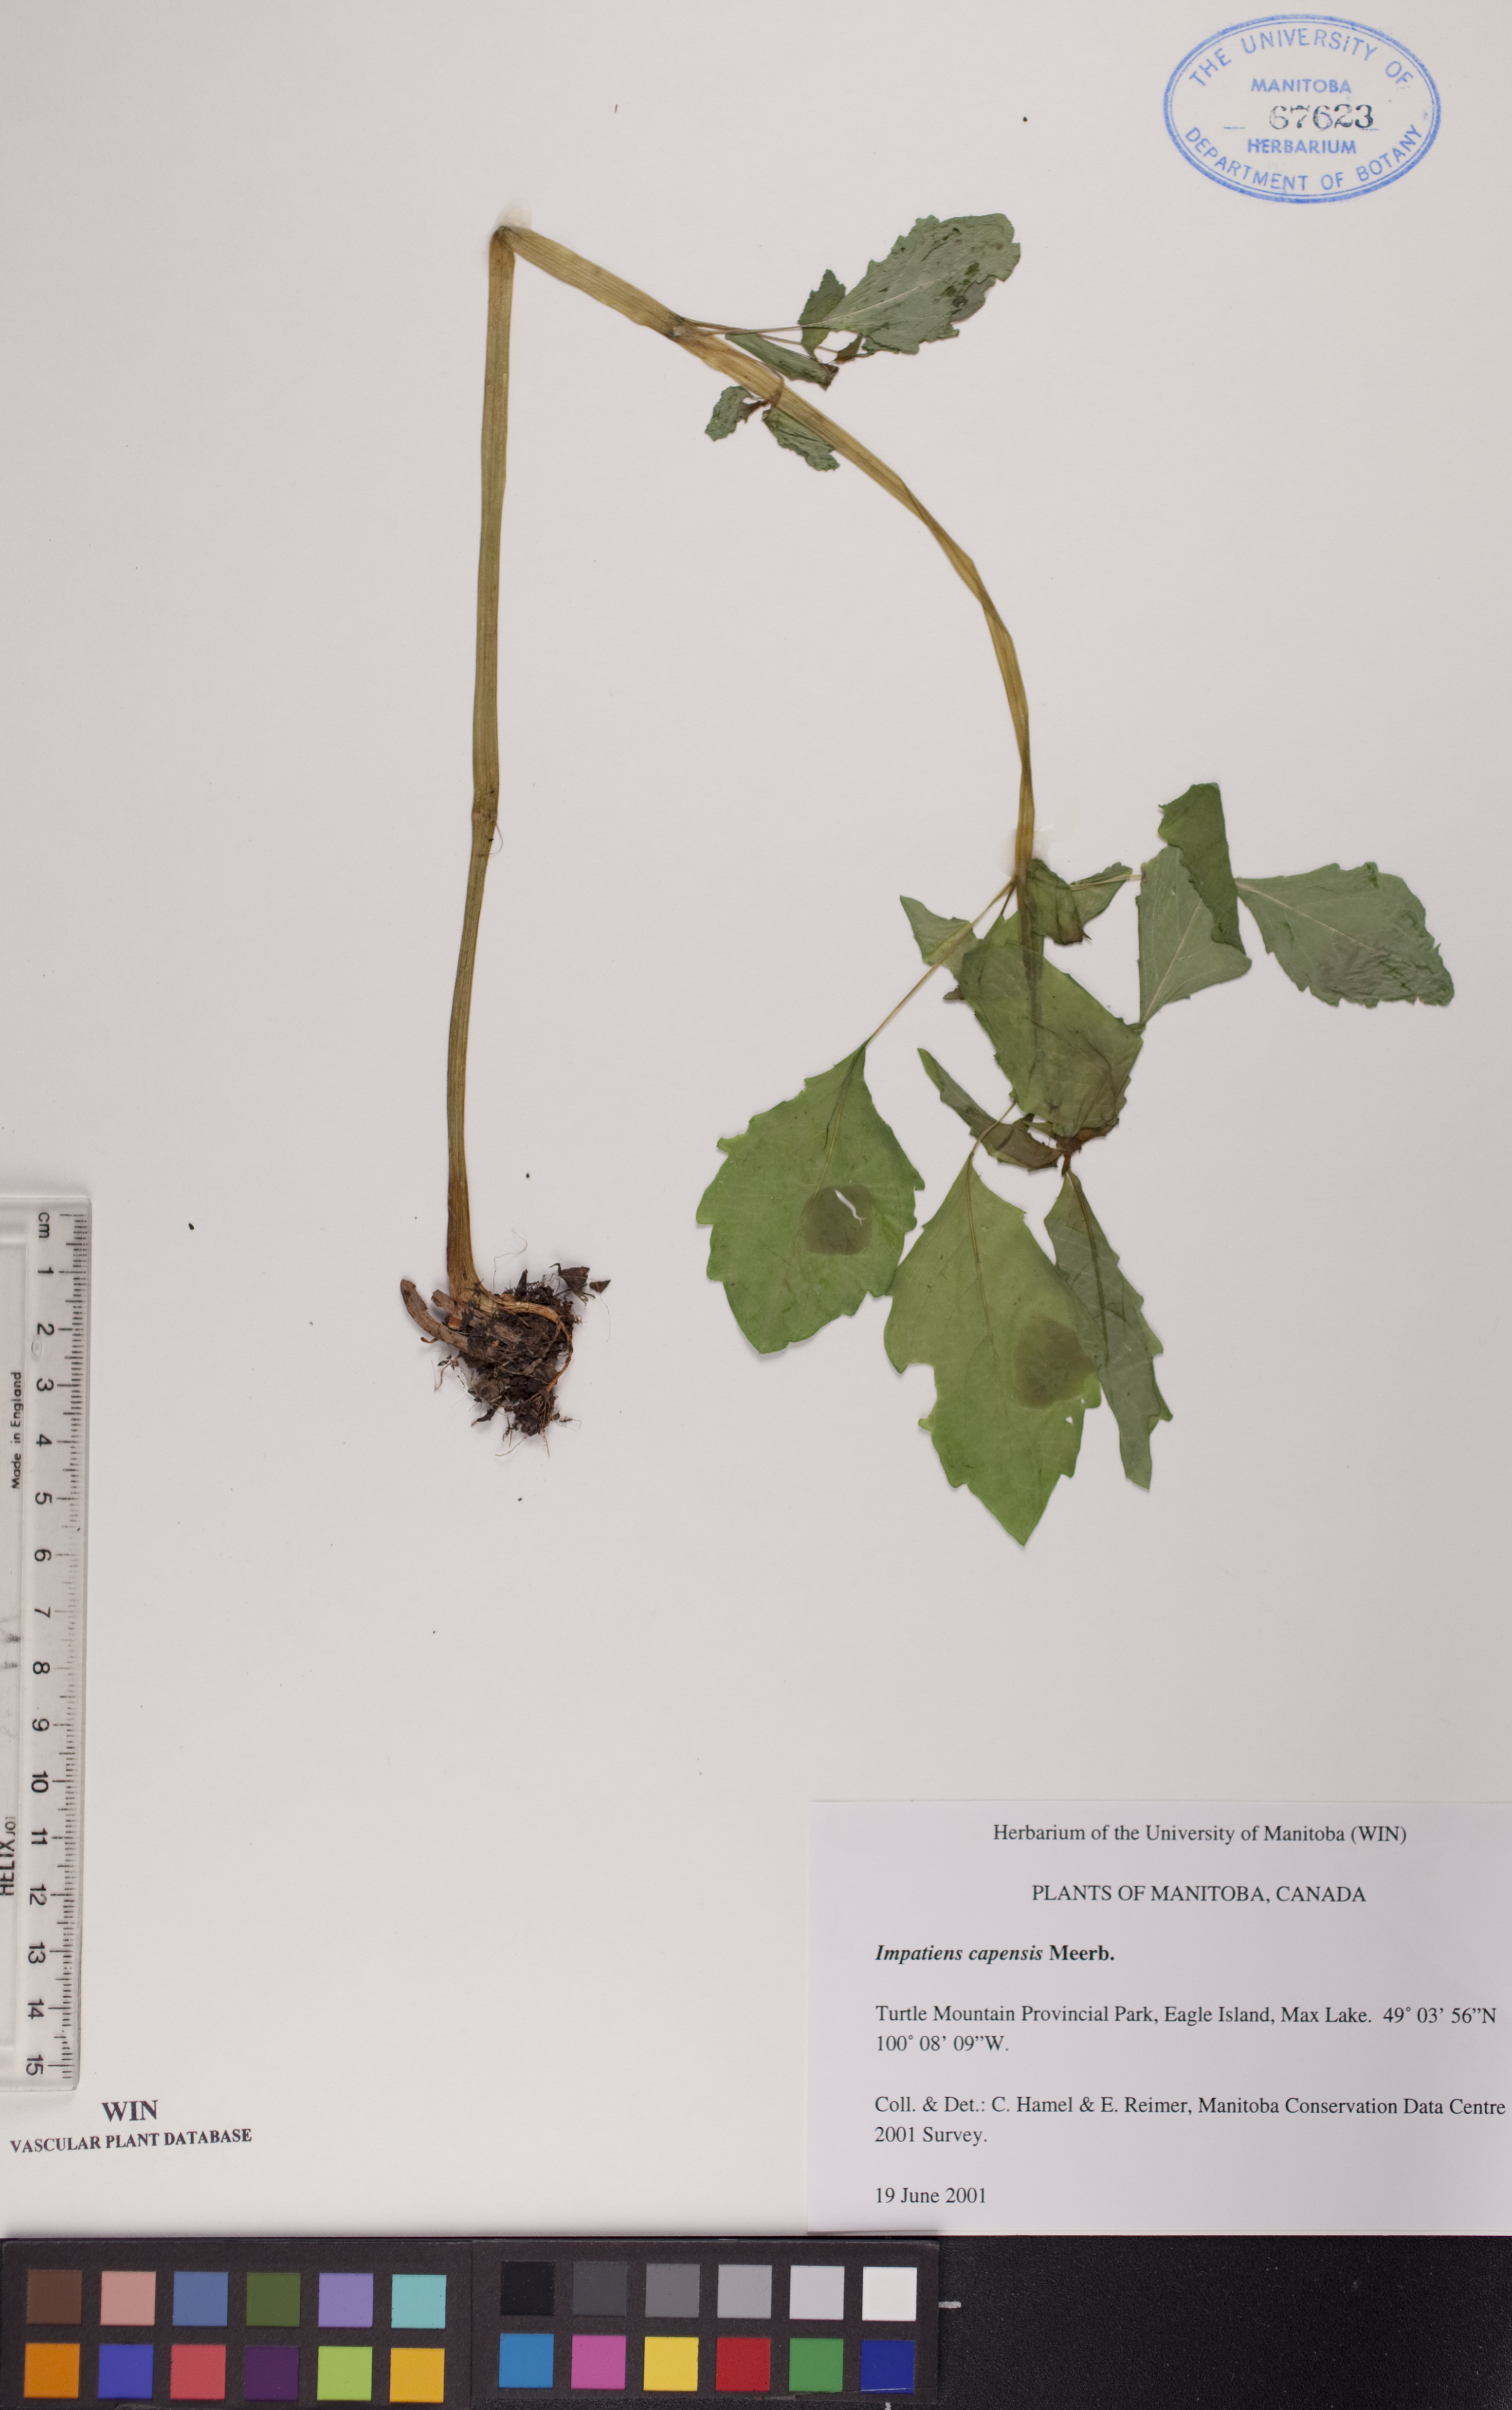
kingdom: Plantae
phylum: Tracheophyta
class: Magnoliopsida
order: Ericales
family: Balsaminaceae
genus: Impatiens
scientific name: Impatiens capensis
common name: Orange balsam
